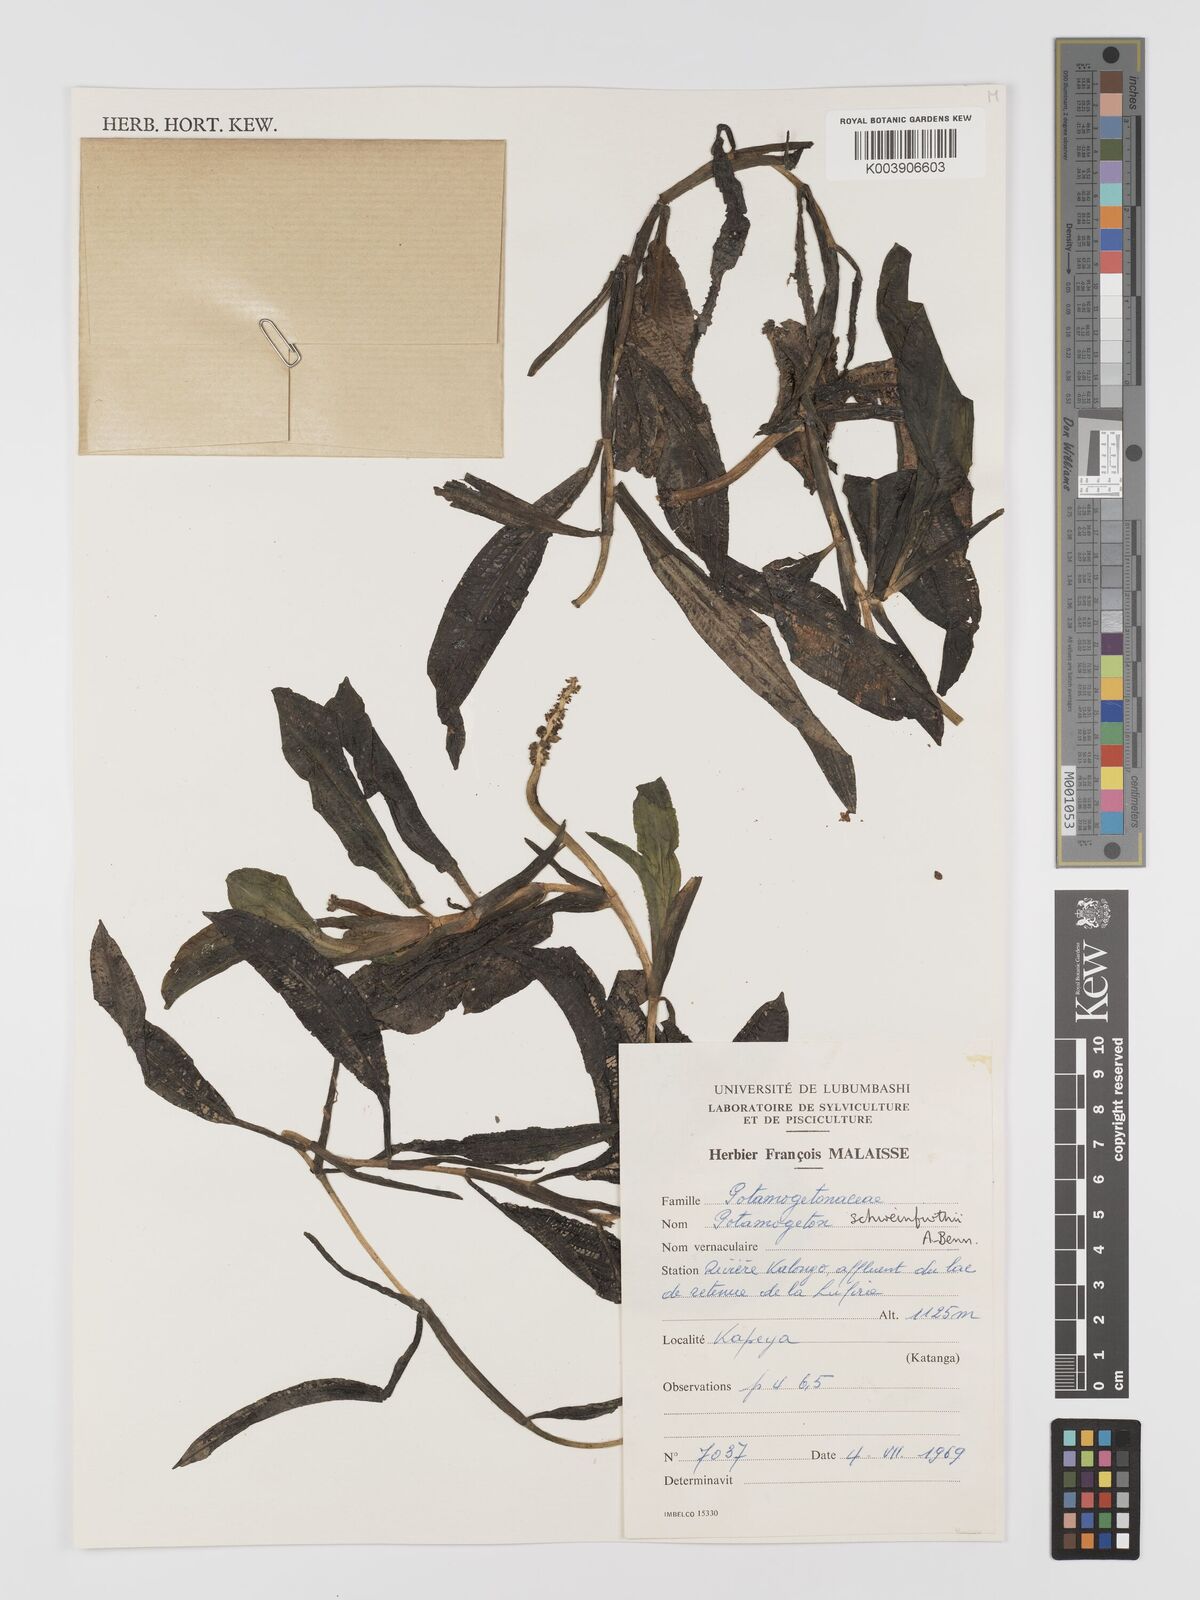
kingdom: Plantae
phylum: Tracheophyta
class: Liliopsida
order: Alismatales
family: Potamogetonaceae
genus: Potamogeton
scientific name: Potamogeton schweinfurthii
